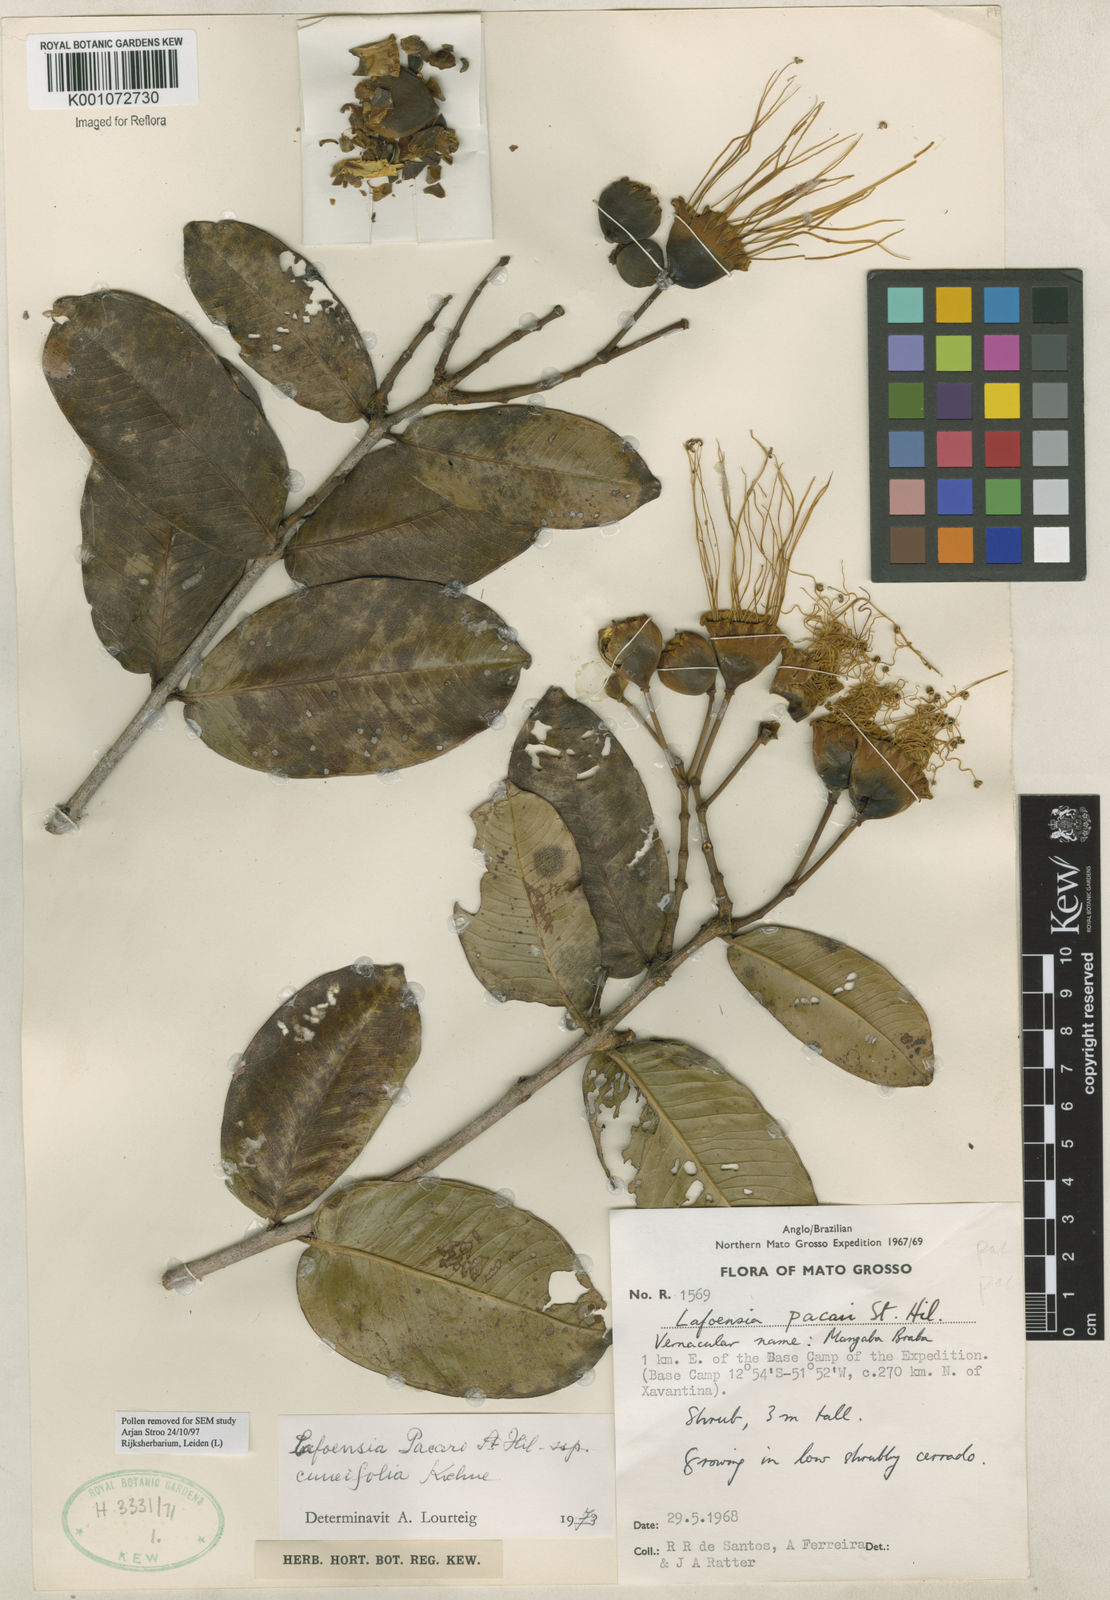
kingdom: Plantae
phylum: Tracheophyta
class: Magnoliopsida
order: Myrtales
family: Lythraceae
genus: Lafoensia
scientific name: Lafoensia pacari
